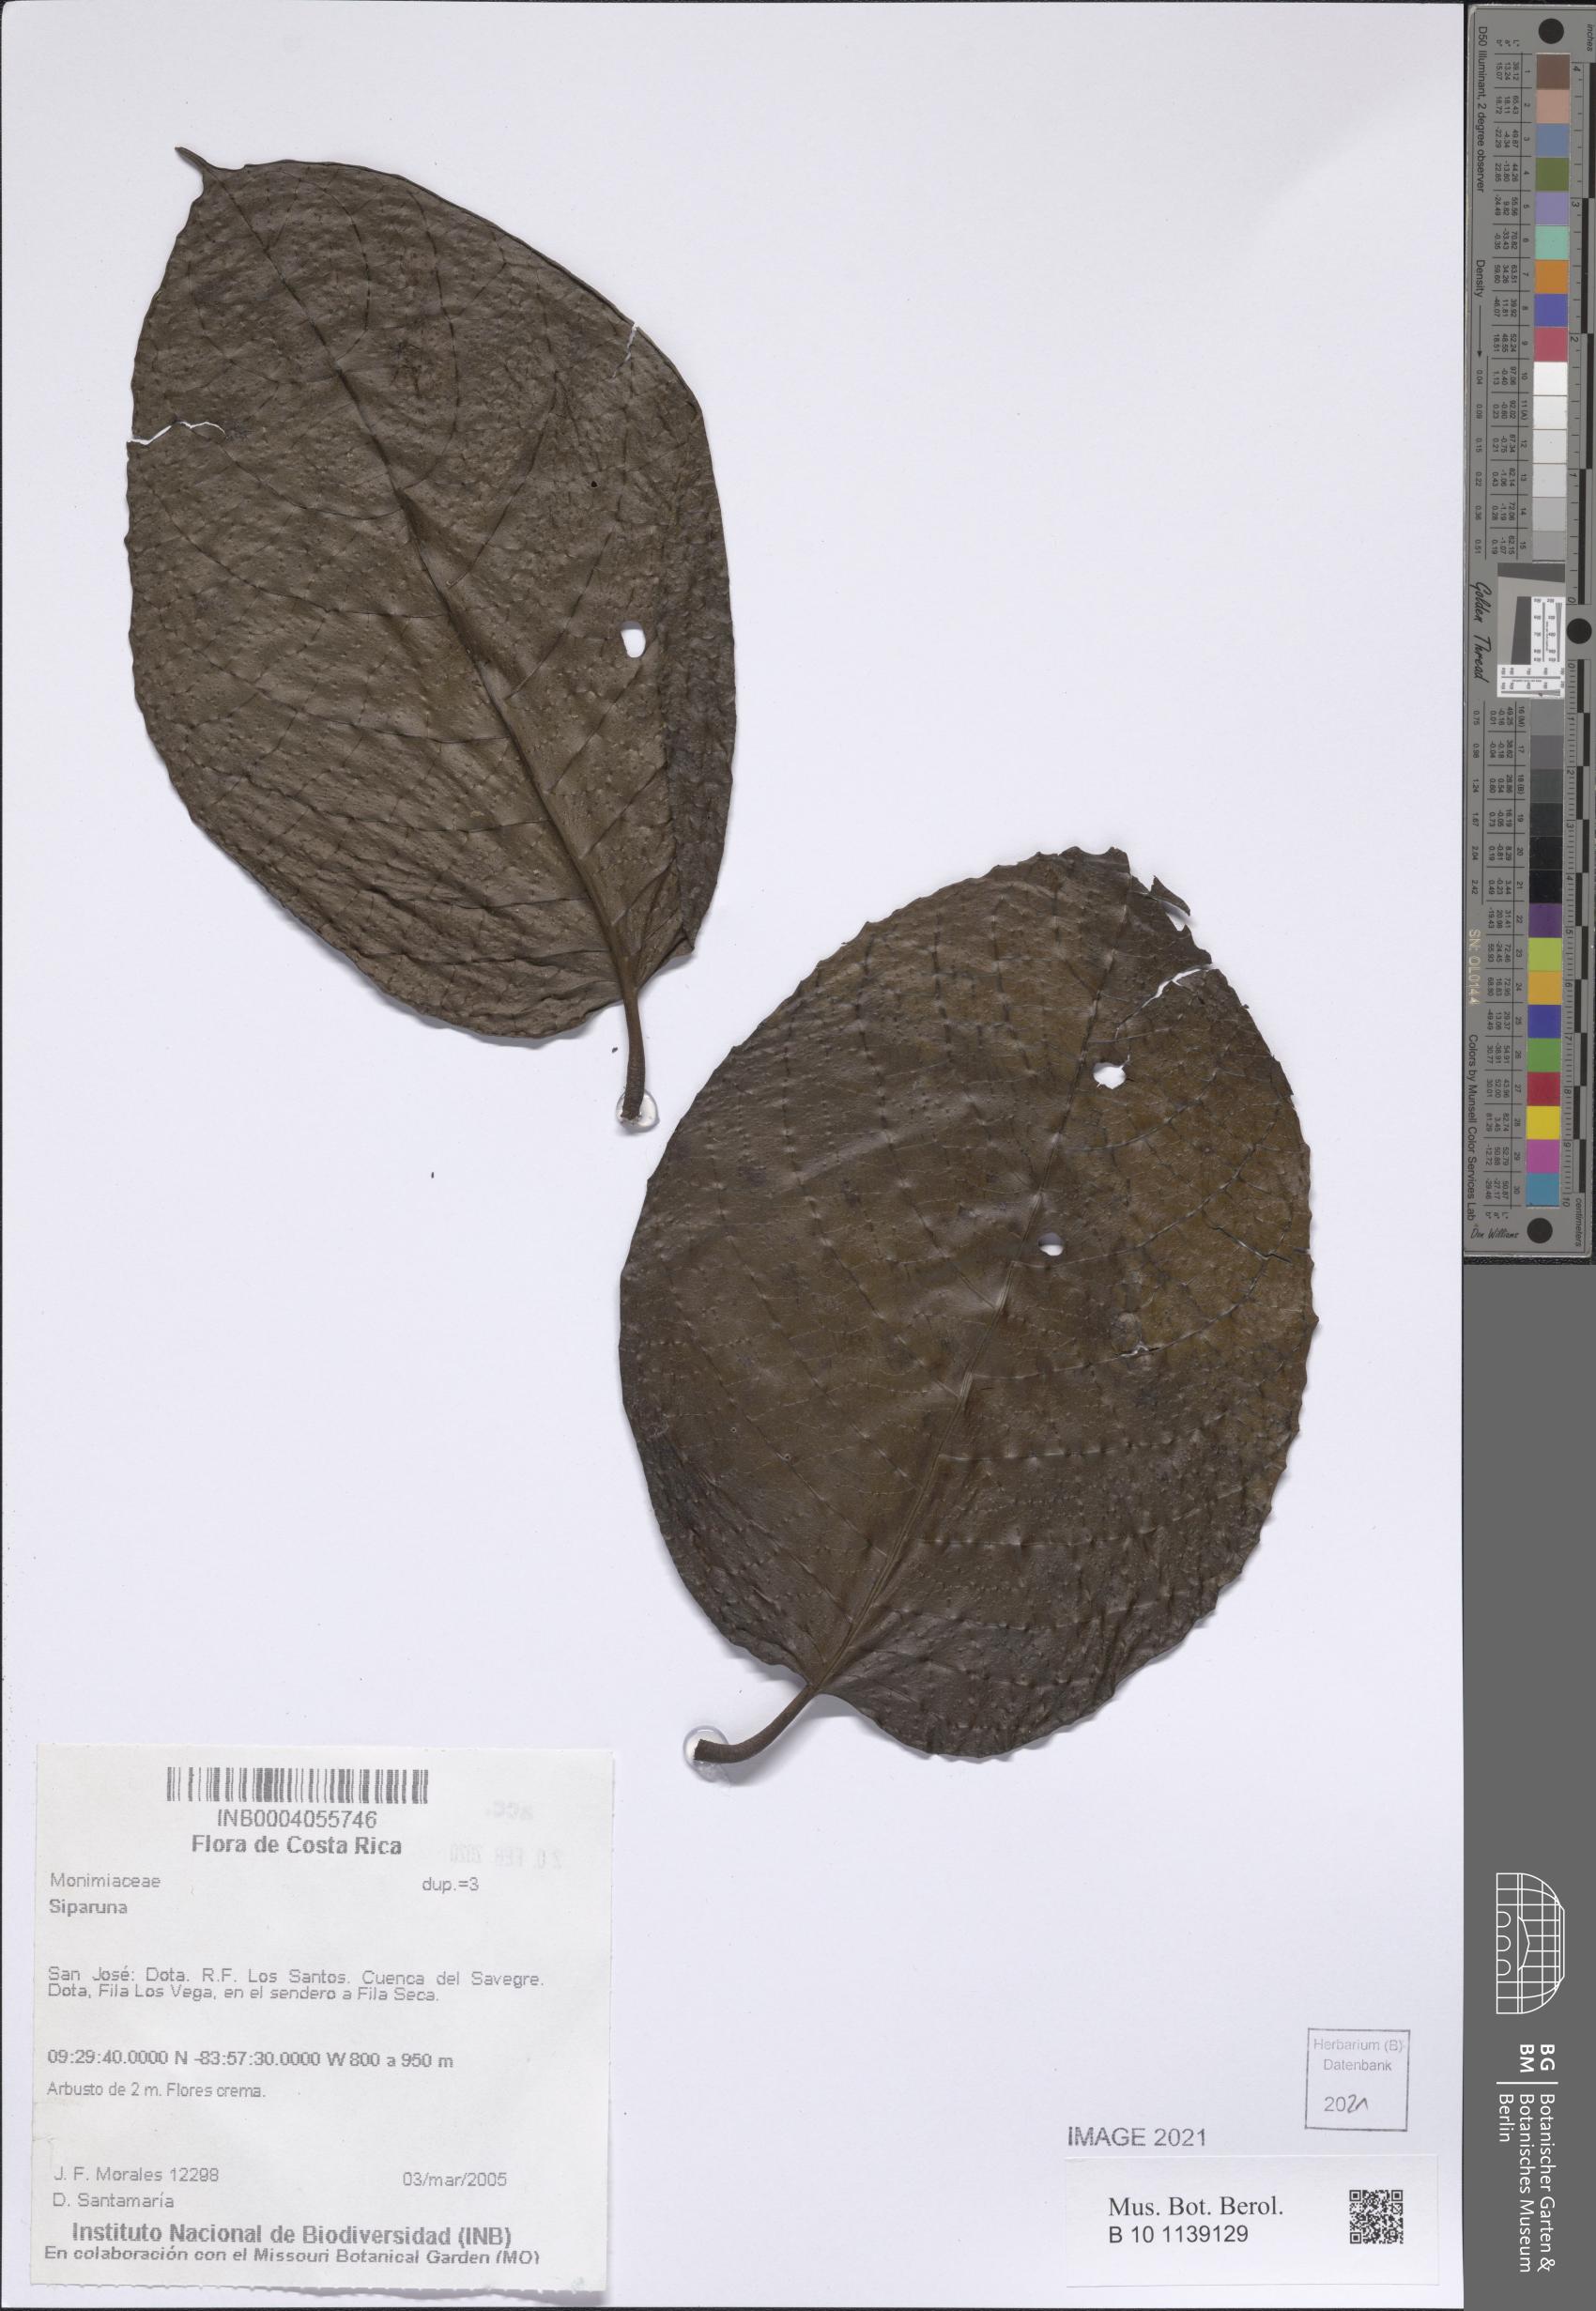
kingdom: Plantae
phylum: Tracheophyta
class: Magnoliopsida
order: Laurales
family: Siparunaceae
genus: Siparuna
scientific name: Siparuna
